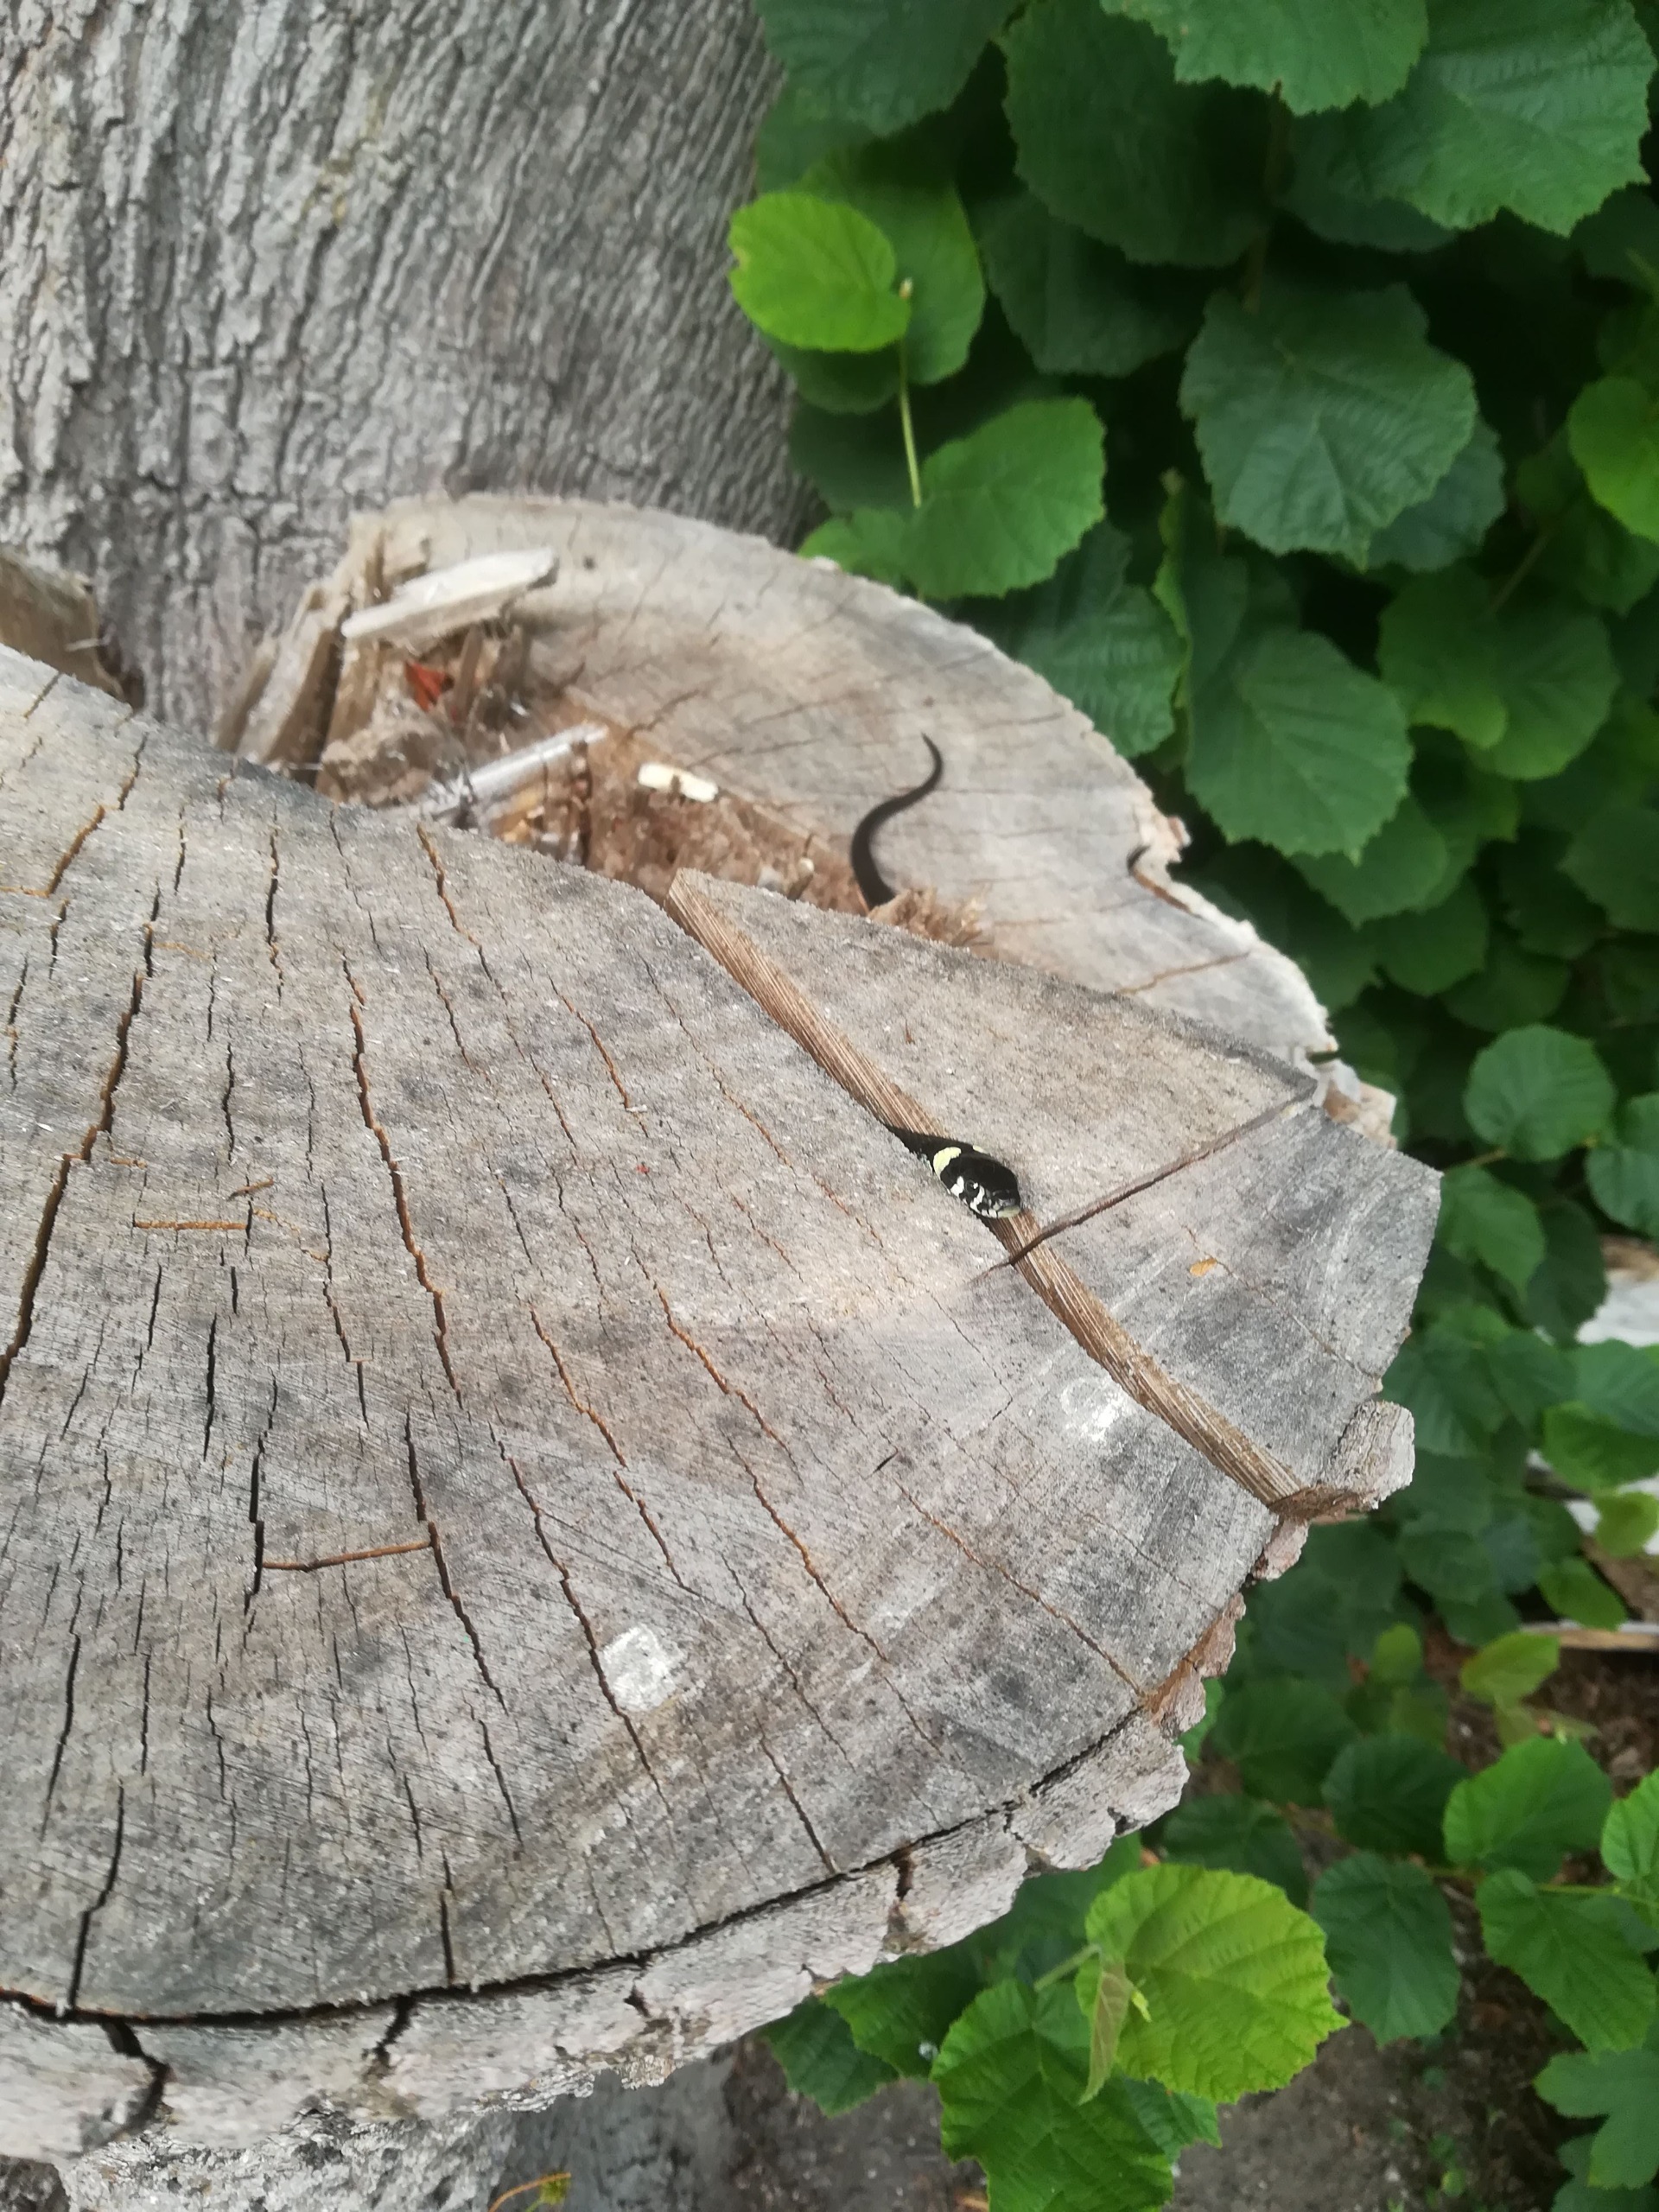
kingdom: Animalia
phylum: Chordata
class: Squamata
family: Colubridae
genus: Natrix
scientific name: Natrix natrix
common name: Snog
